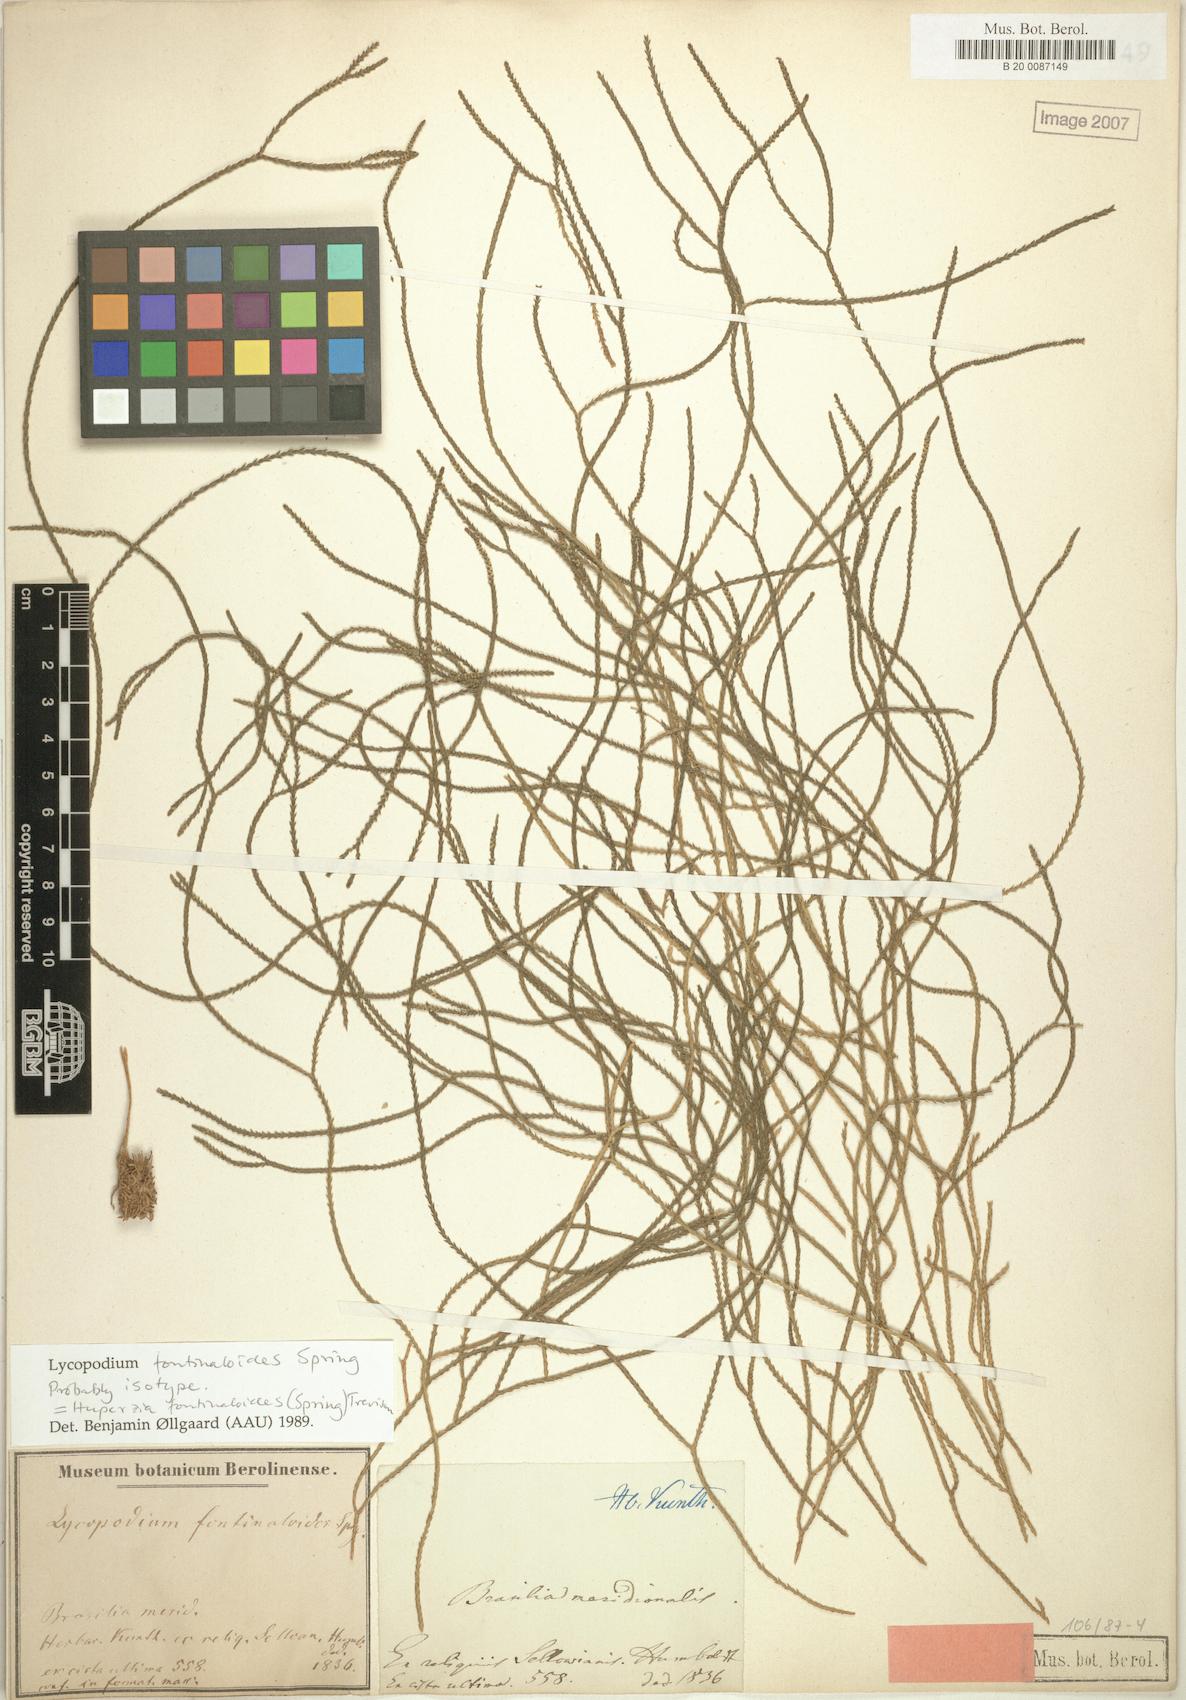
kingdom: Plantae
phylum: Tracheophyta
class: Lycopodiopsida
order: Lycopodiales
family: Lycopodiaceae
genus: Phlegmariurus
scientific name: Phlegmariurus fontinaloides
